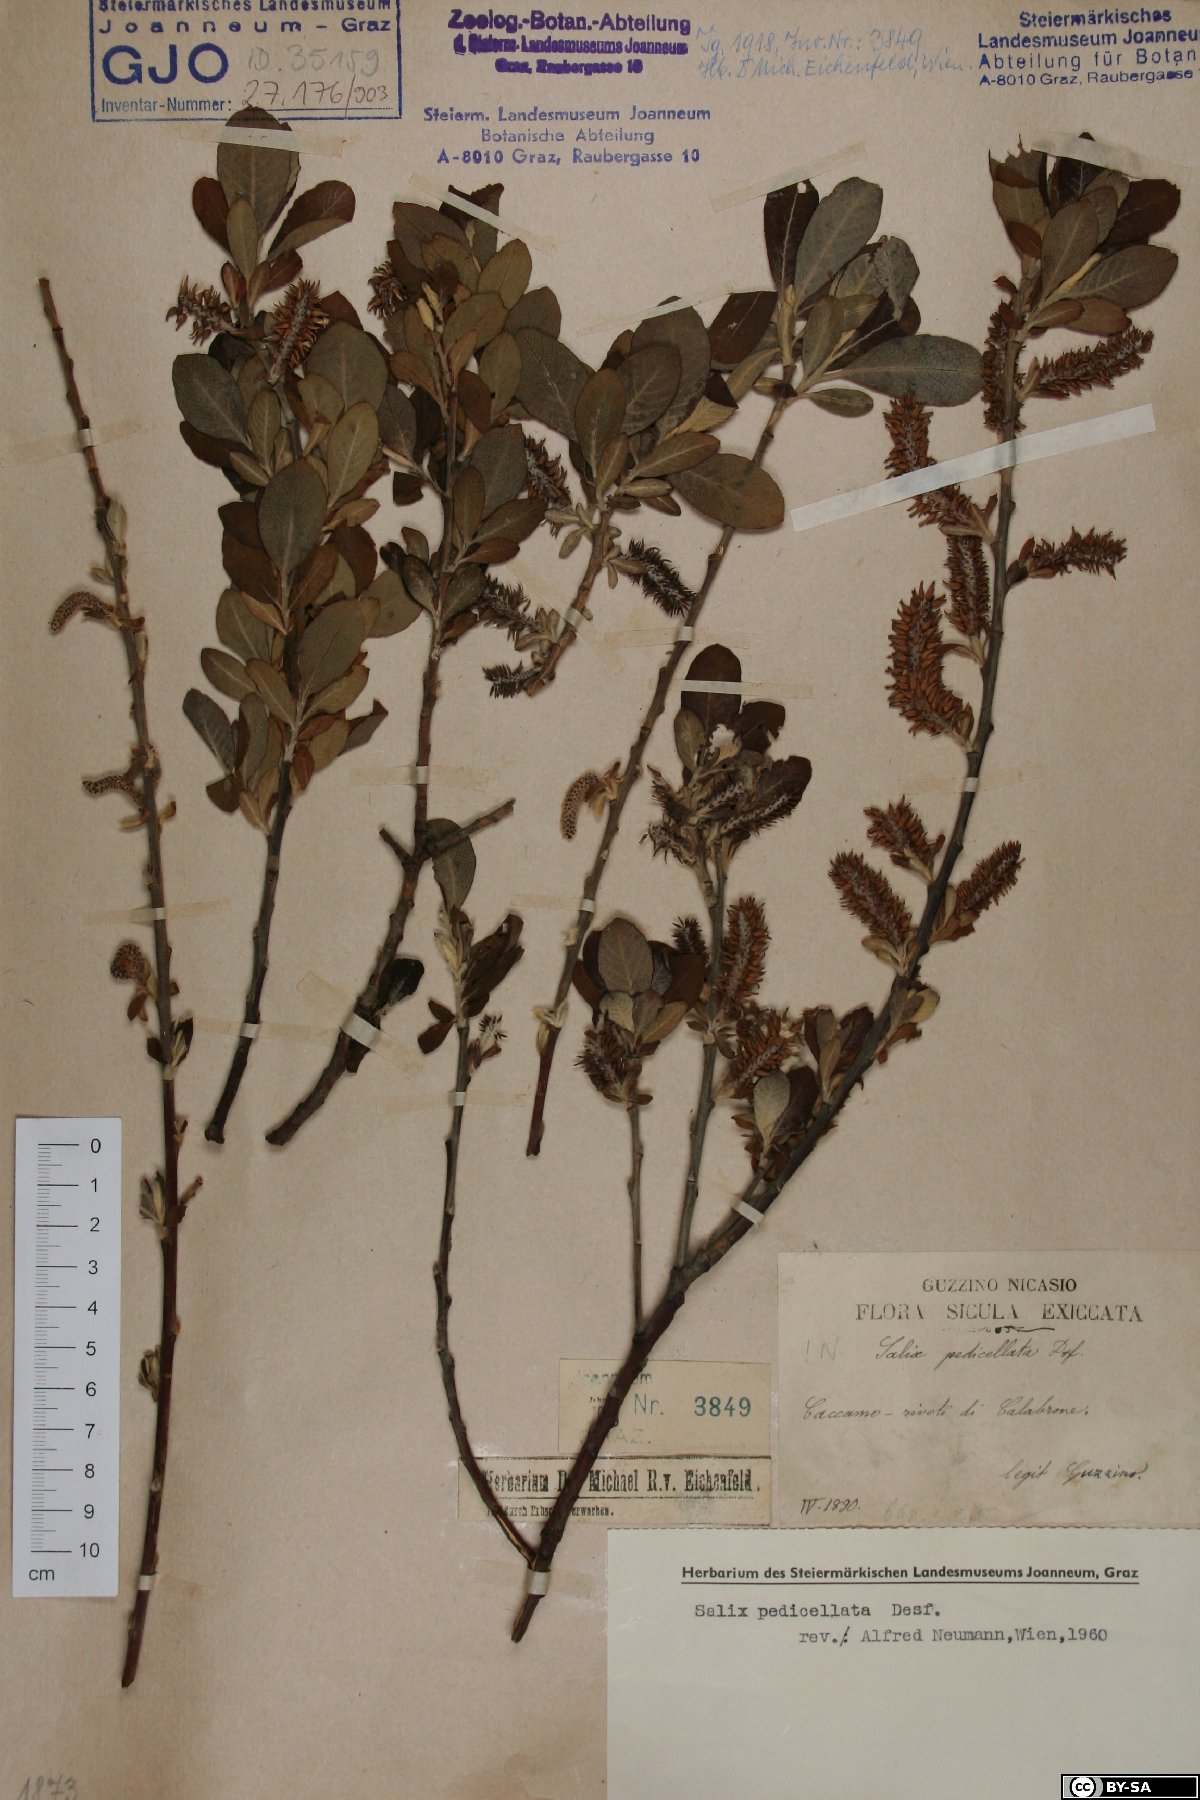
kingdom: Plantae
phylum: Tracheophyta
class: Magnoliopsida
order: Malpighiales
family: Salicaceae
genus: Salix
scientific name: Salix pedicellata
